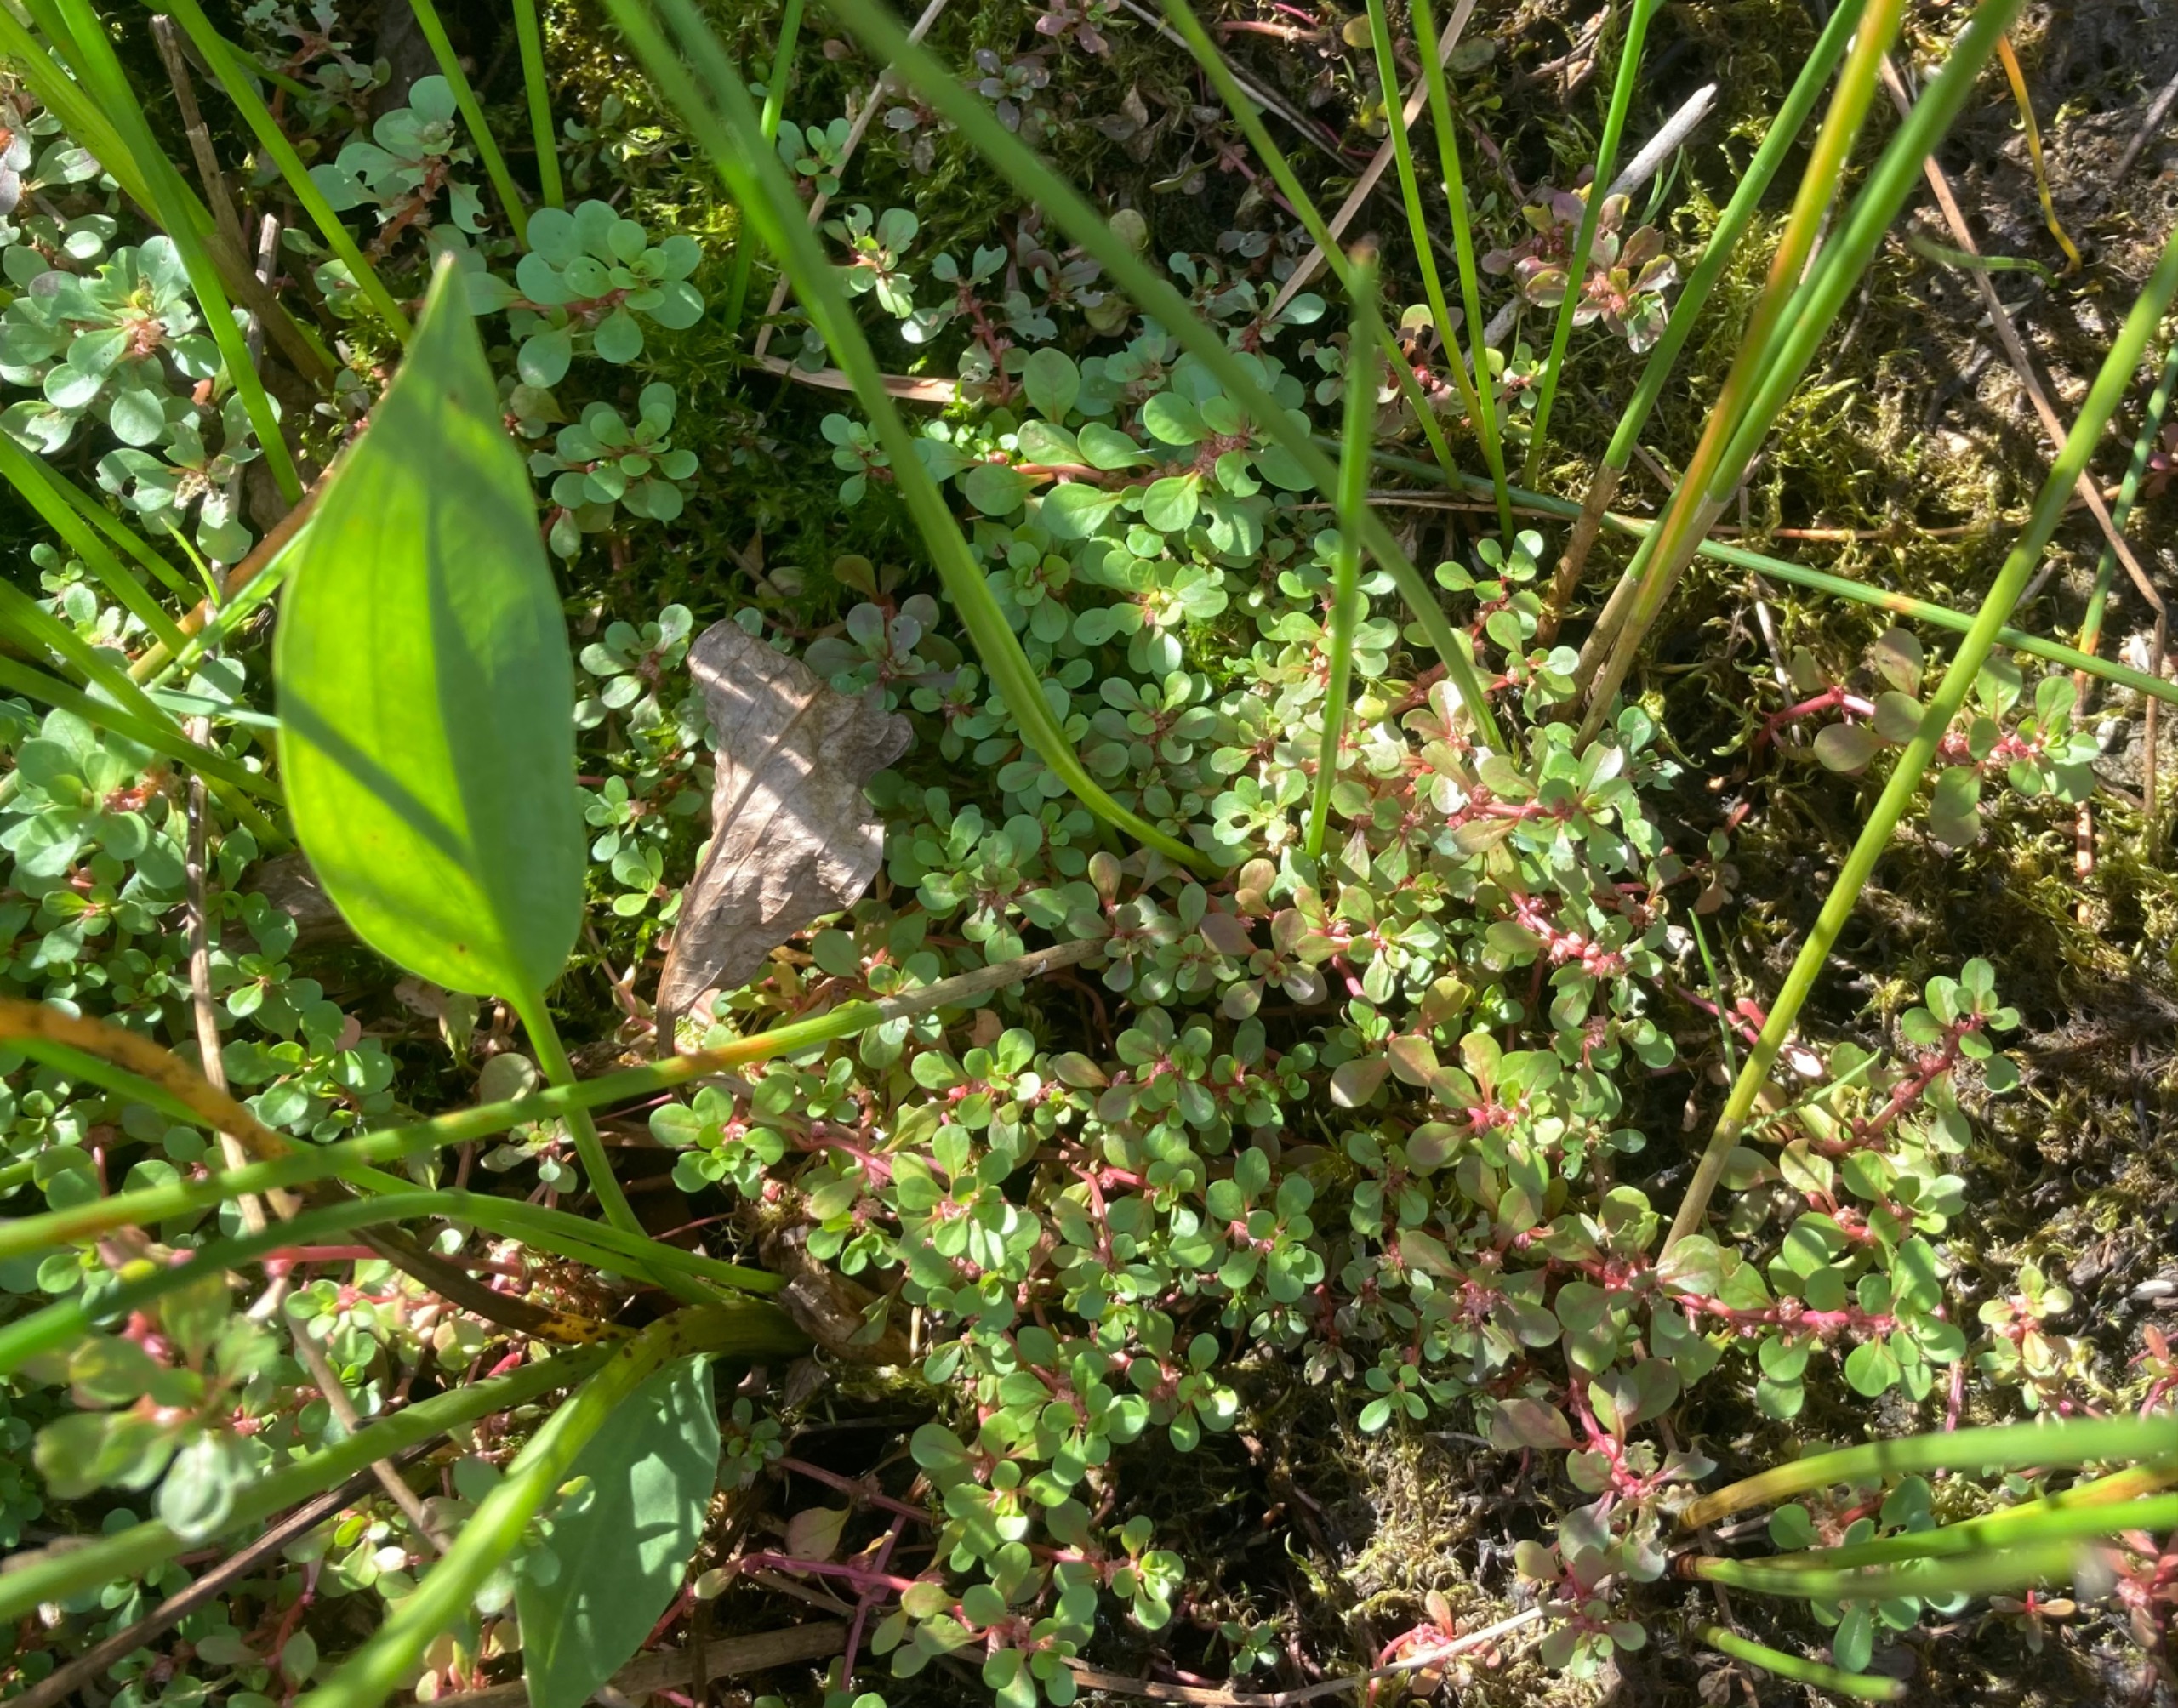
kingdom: Plantae
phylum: Tracheophyta
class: Magnoliopsida
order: Myrtales
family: Lythraceae
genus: Lythrum
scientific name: Lythrum portula
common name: Vandportulak
